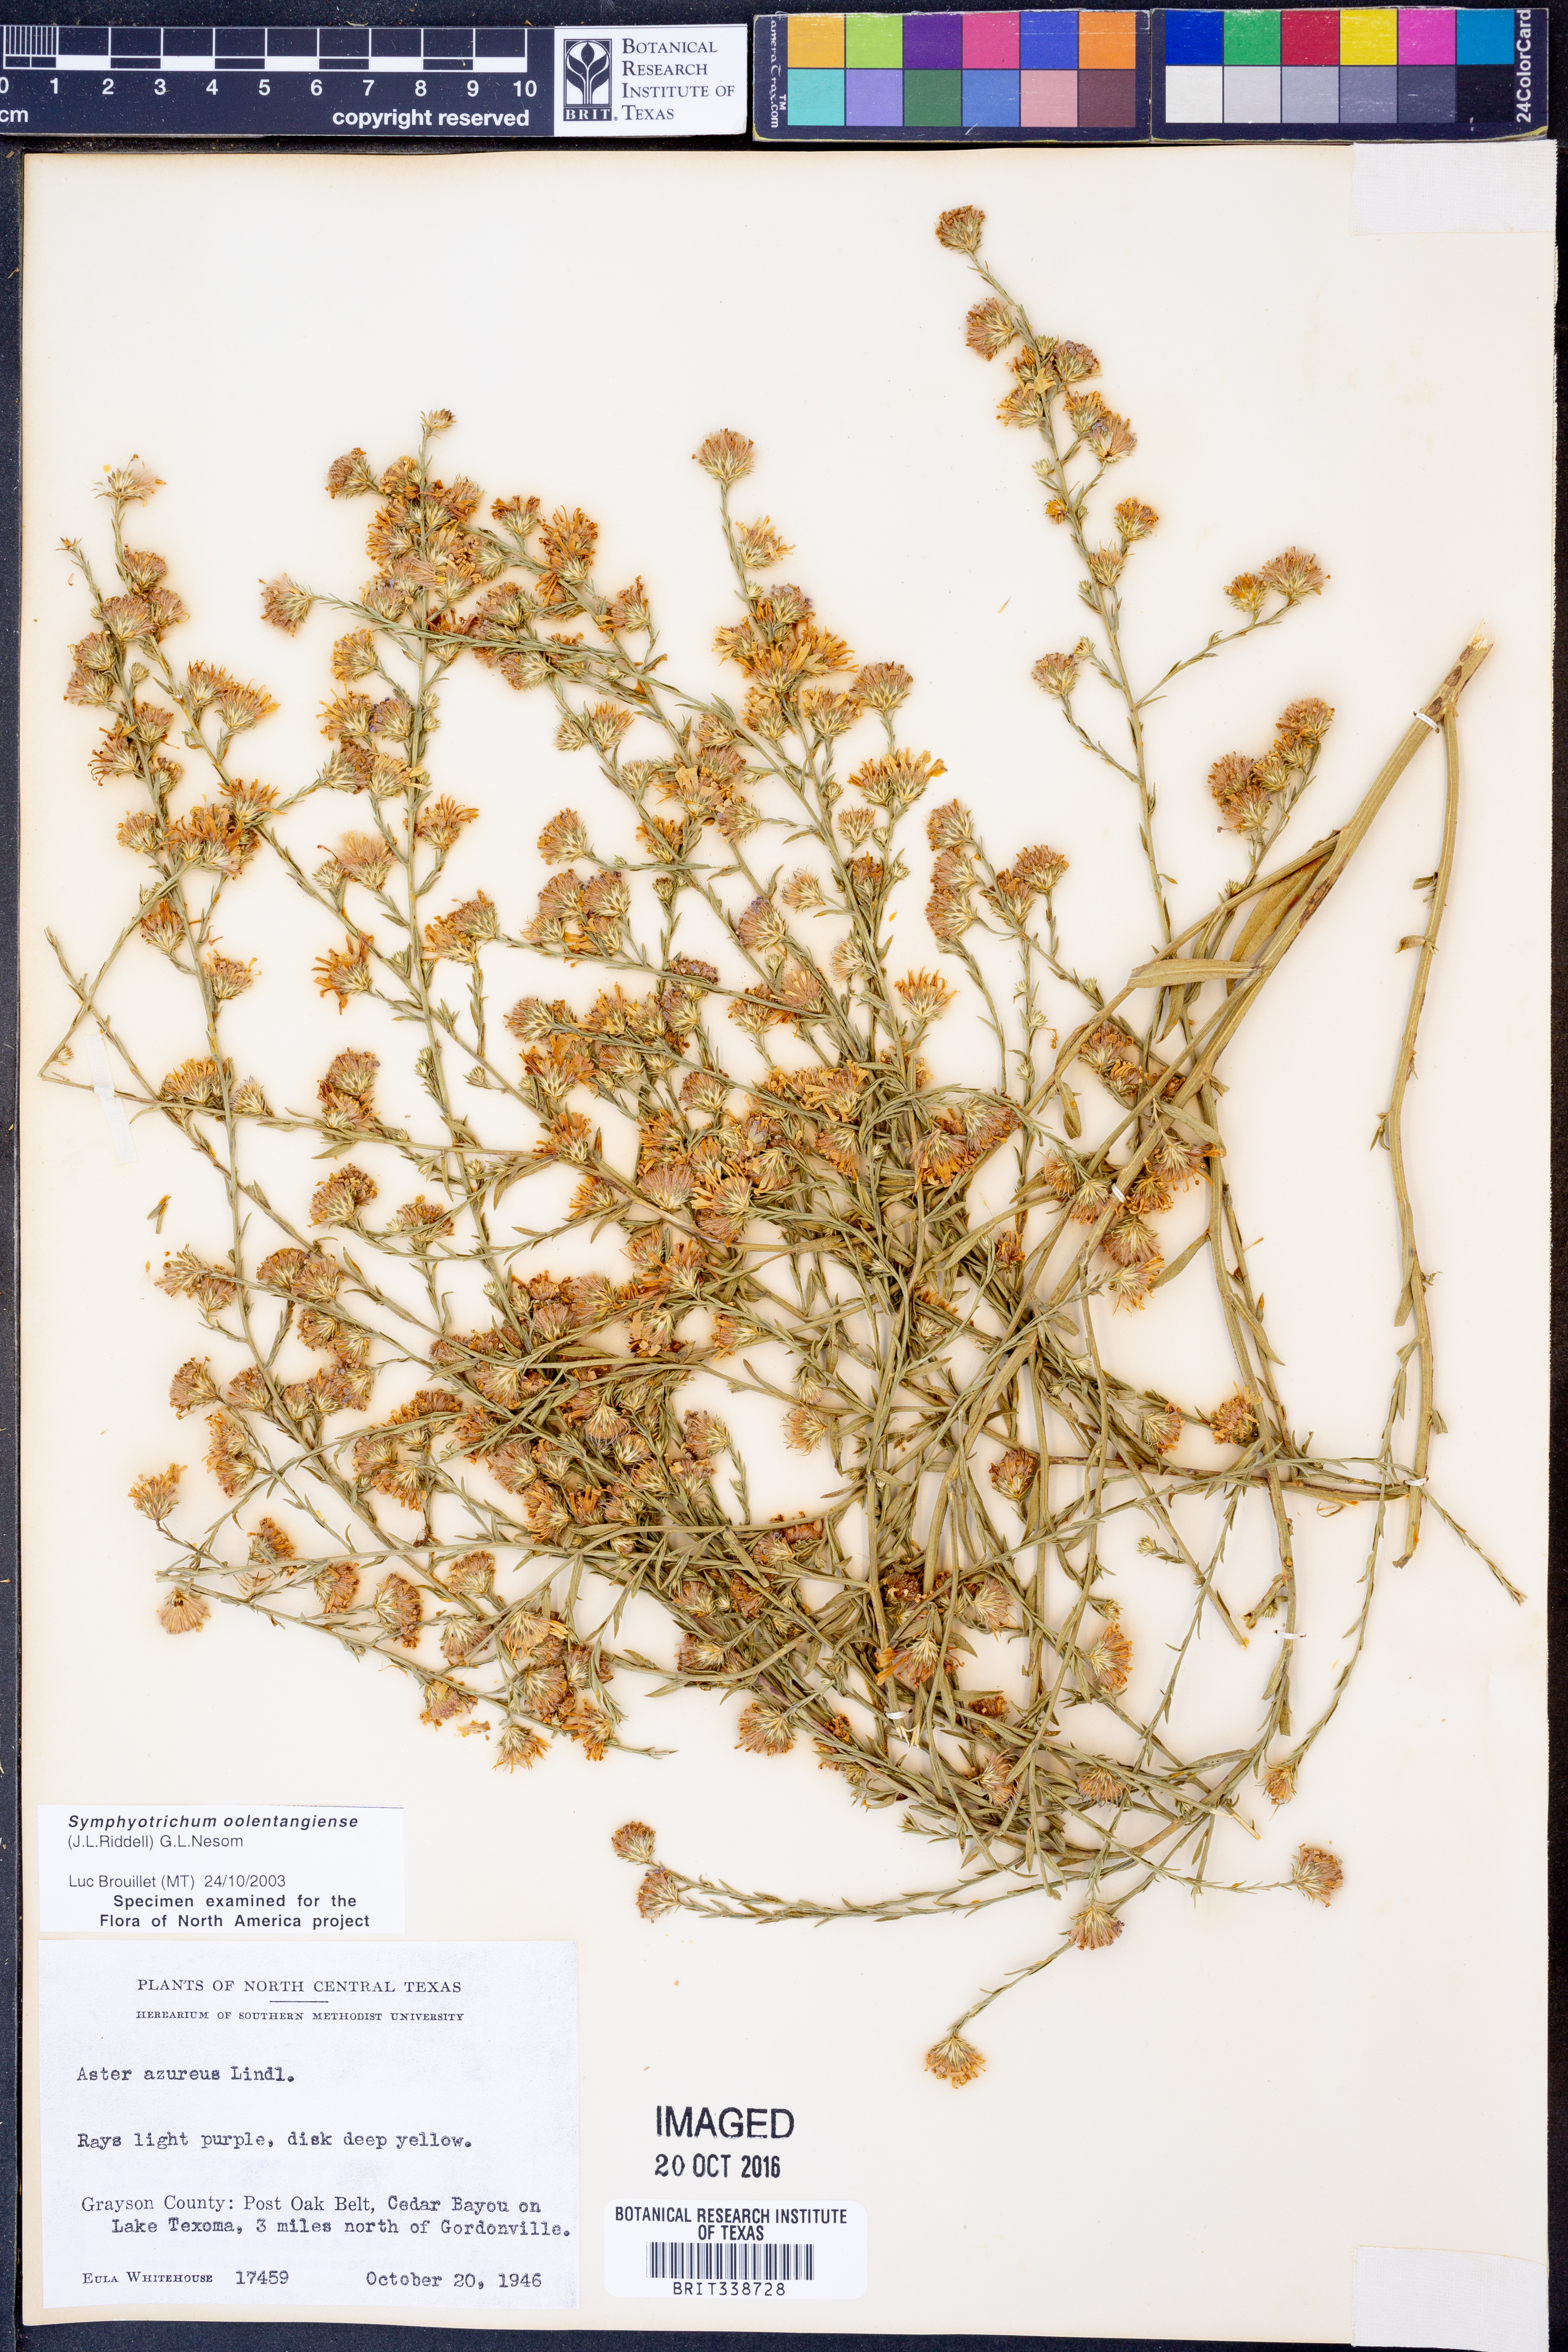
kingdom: Plantae
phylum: Tracheophyta
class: Magnoliopsida
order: Asterales
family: Asteraceae
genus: Symphyotrichum
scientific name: Symphyotrichum oolentangiense
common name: Azure aster
